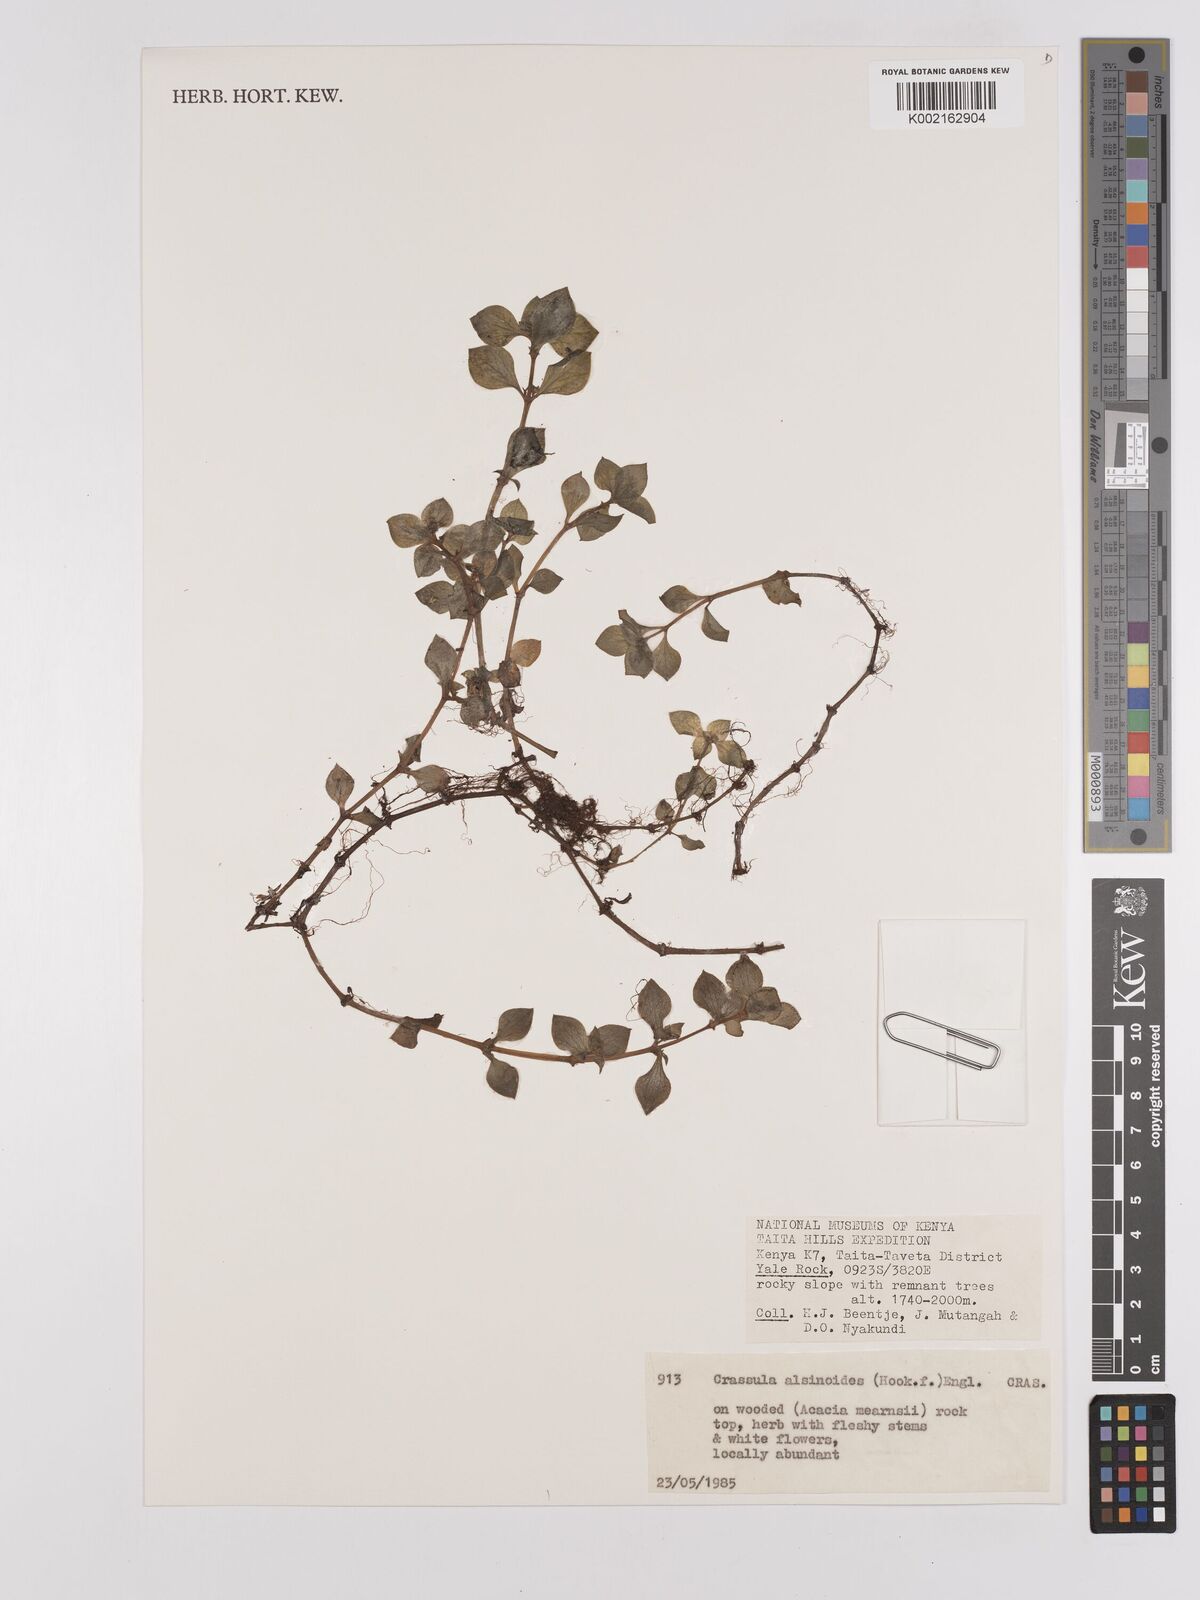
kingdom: Plantae
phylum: Tracheophyta
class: Magnoliopsida
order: Saxifragales
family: Crassulaceae
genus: Crassula
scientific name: Crassula alsinoides
